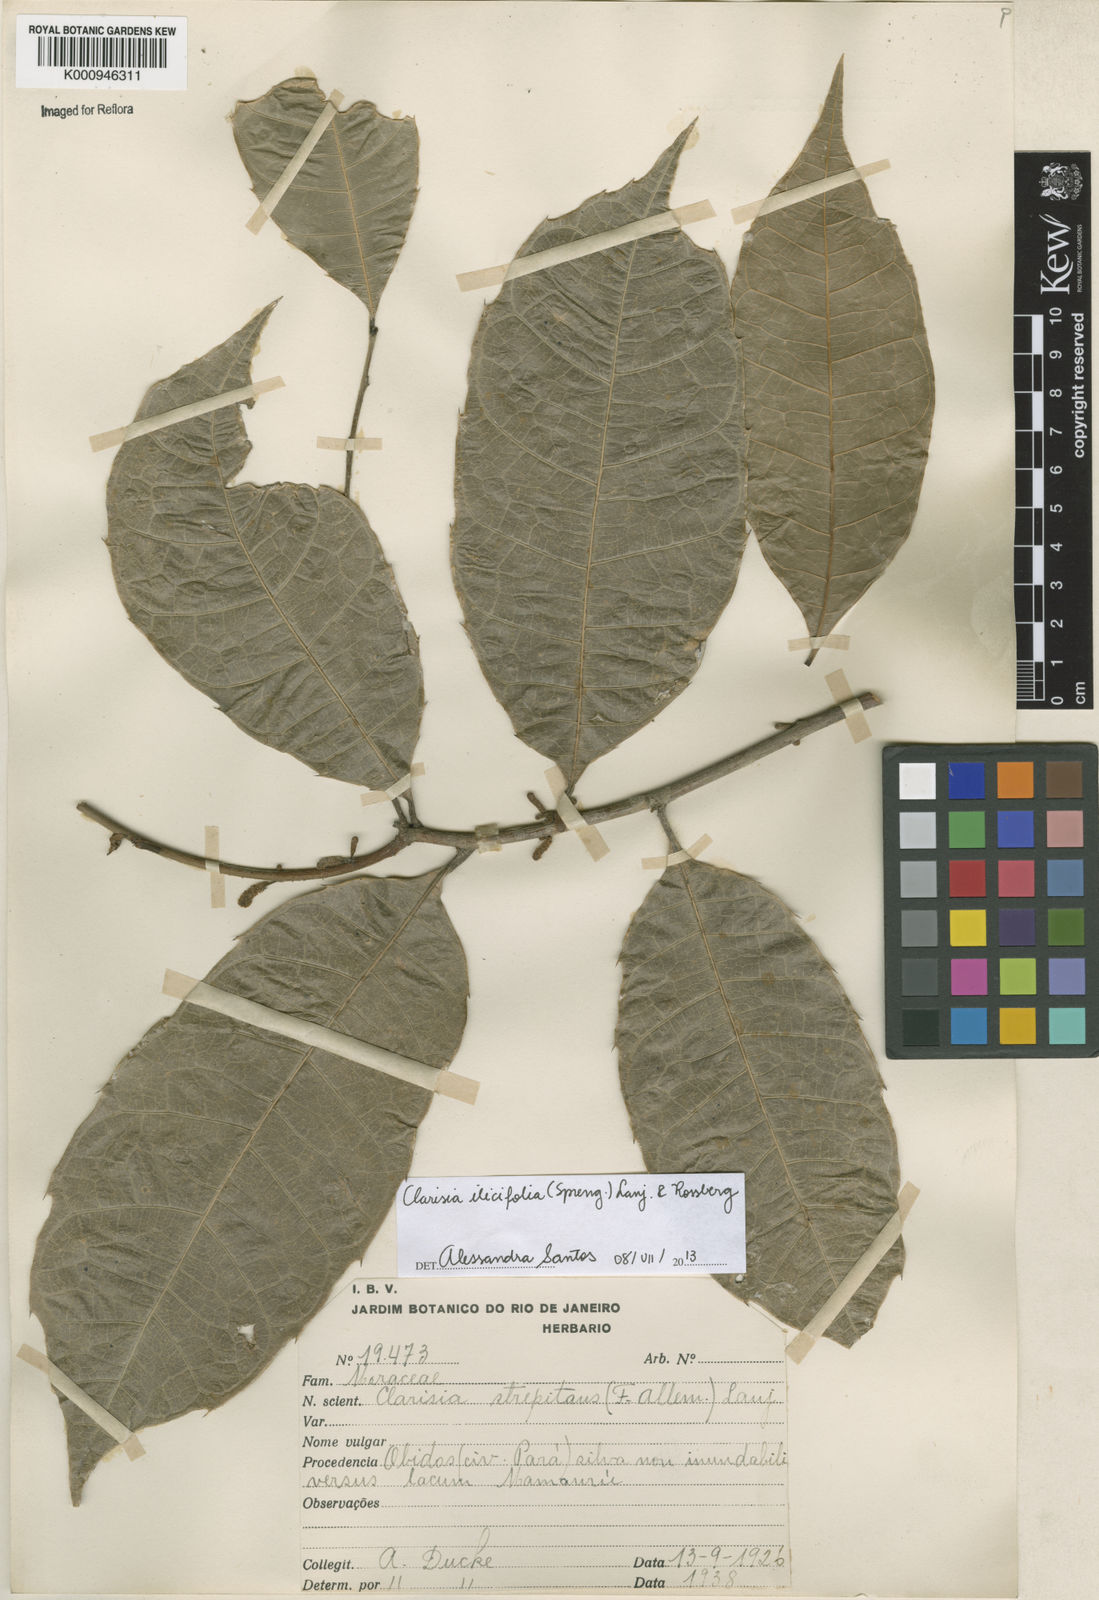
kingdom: Plantae
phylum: Tracheophyta
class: Magnoliopsida
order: Rosales
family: Moraceae
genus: Clarisia
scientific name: Clarisia ilicifolia
